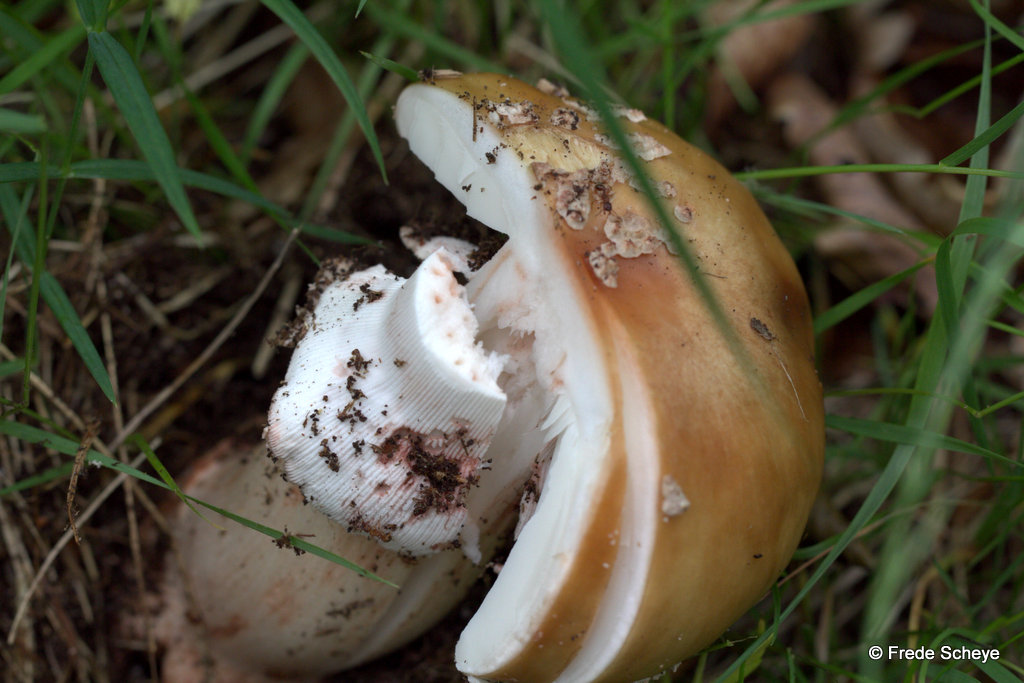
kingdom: Fungi
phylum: Basidiomycota
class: Agaricomycetes
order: Agaricales
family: Amanitaceae
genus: Amanita
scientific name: Amanita rubescens
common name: rødmende fluesvamp
